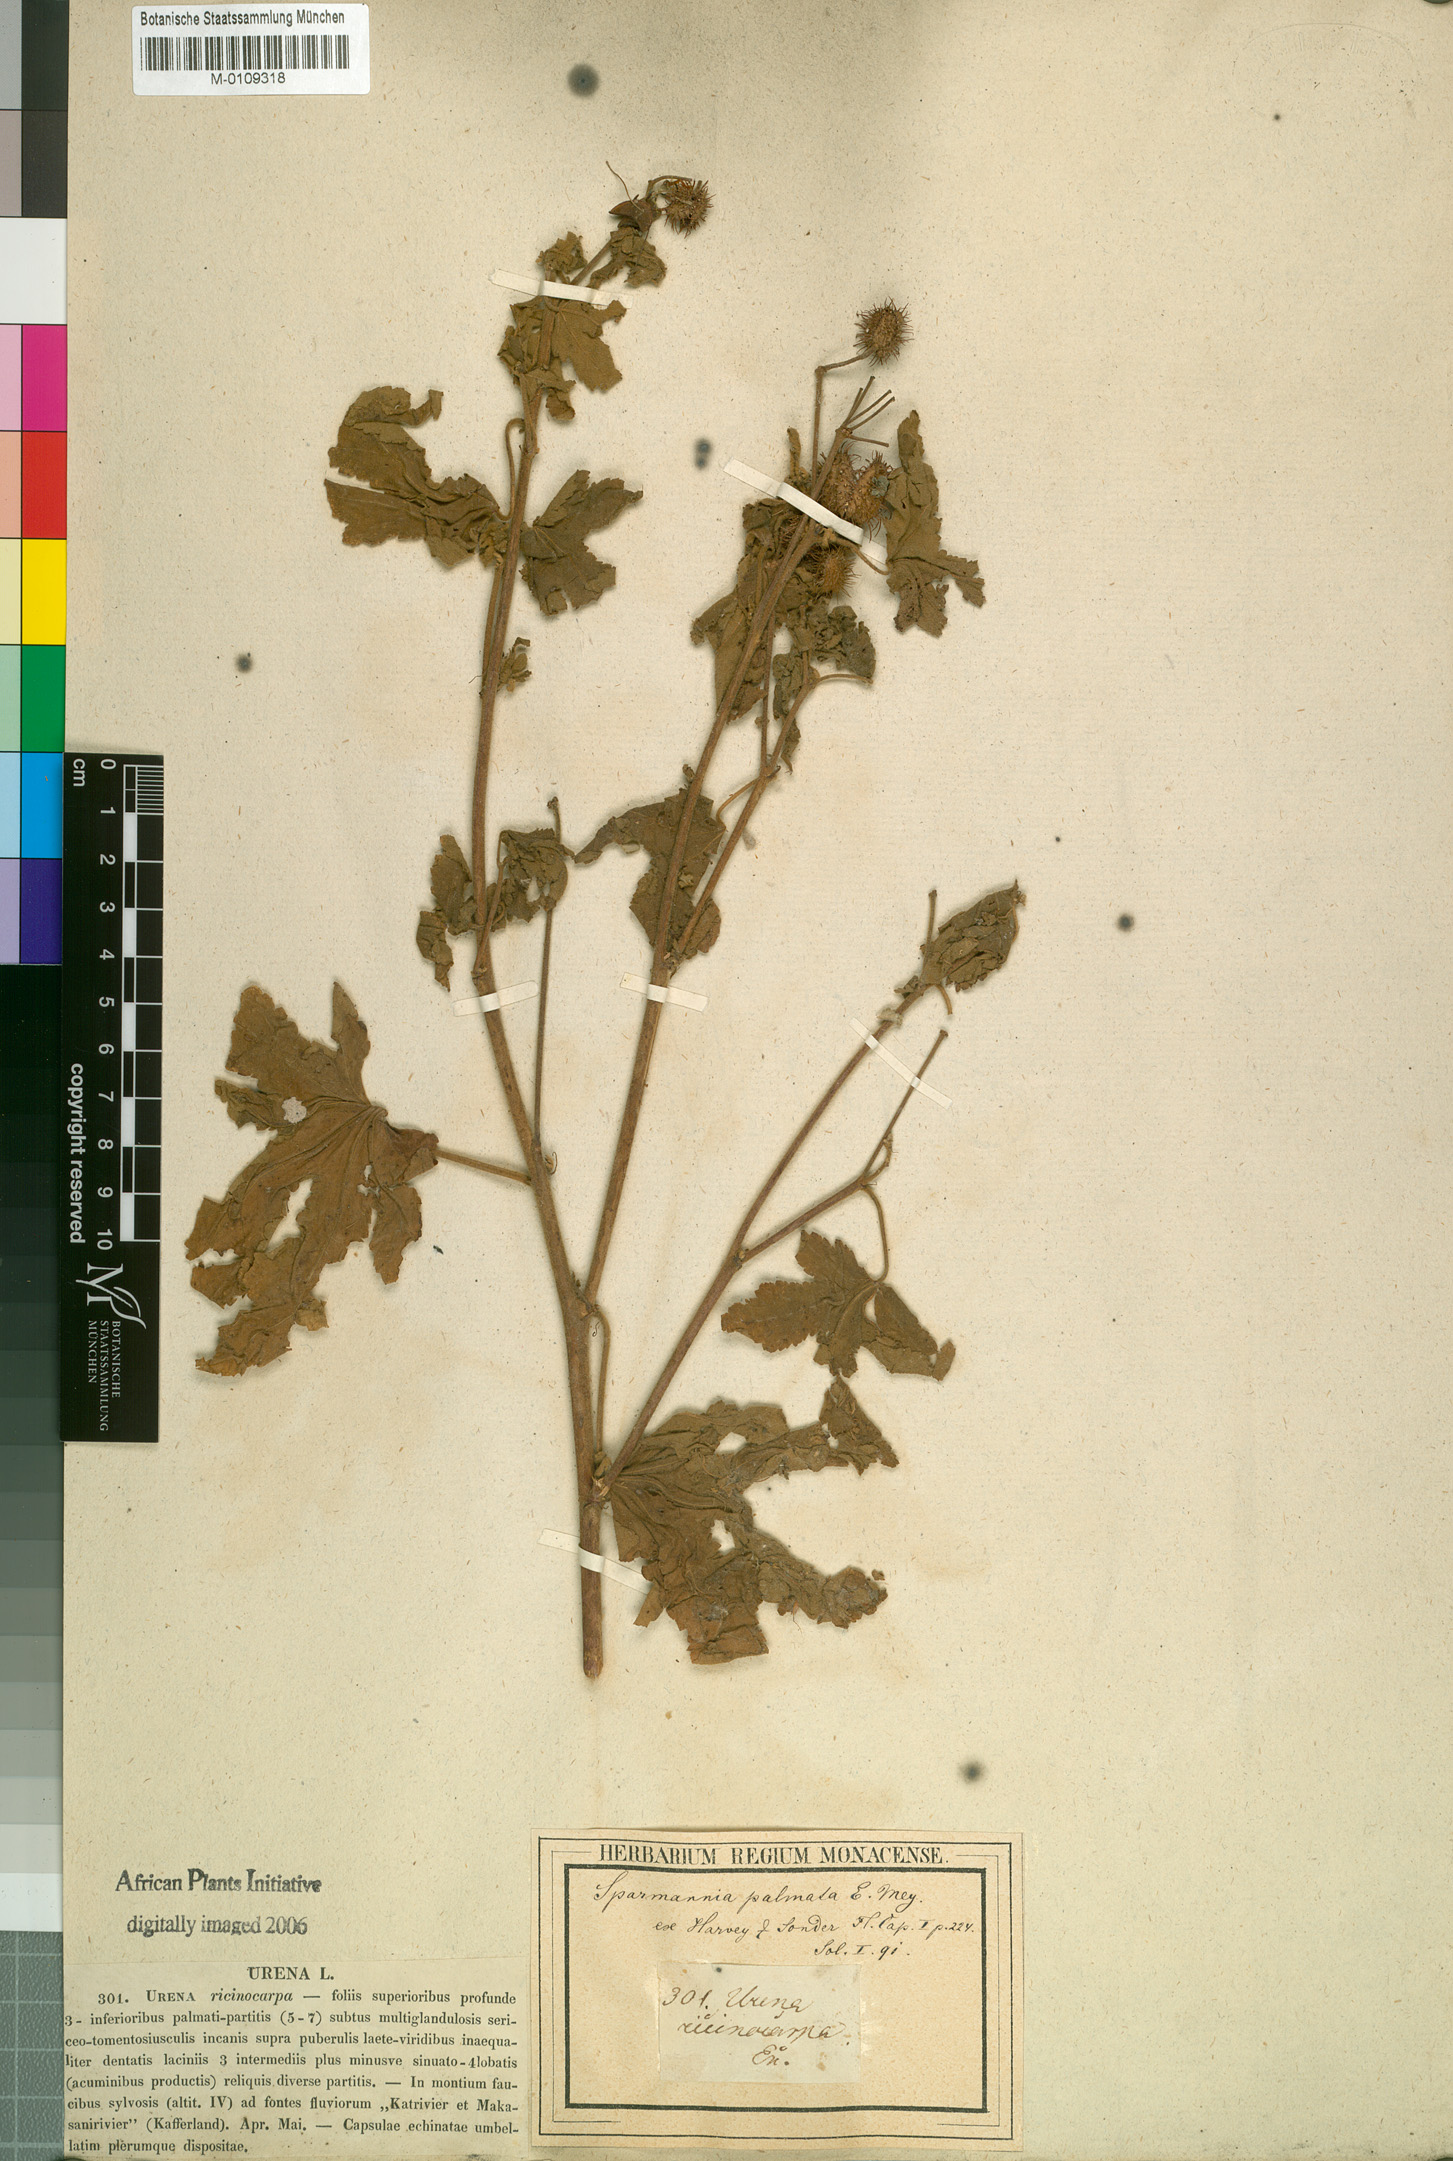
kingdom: Plantae
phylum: Tracheophyta
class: Magnoliopsida
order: Malvales
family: Malvaceae
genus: Sparrmannia
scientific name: Sparrmannia ricinocarpa
